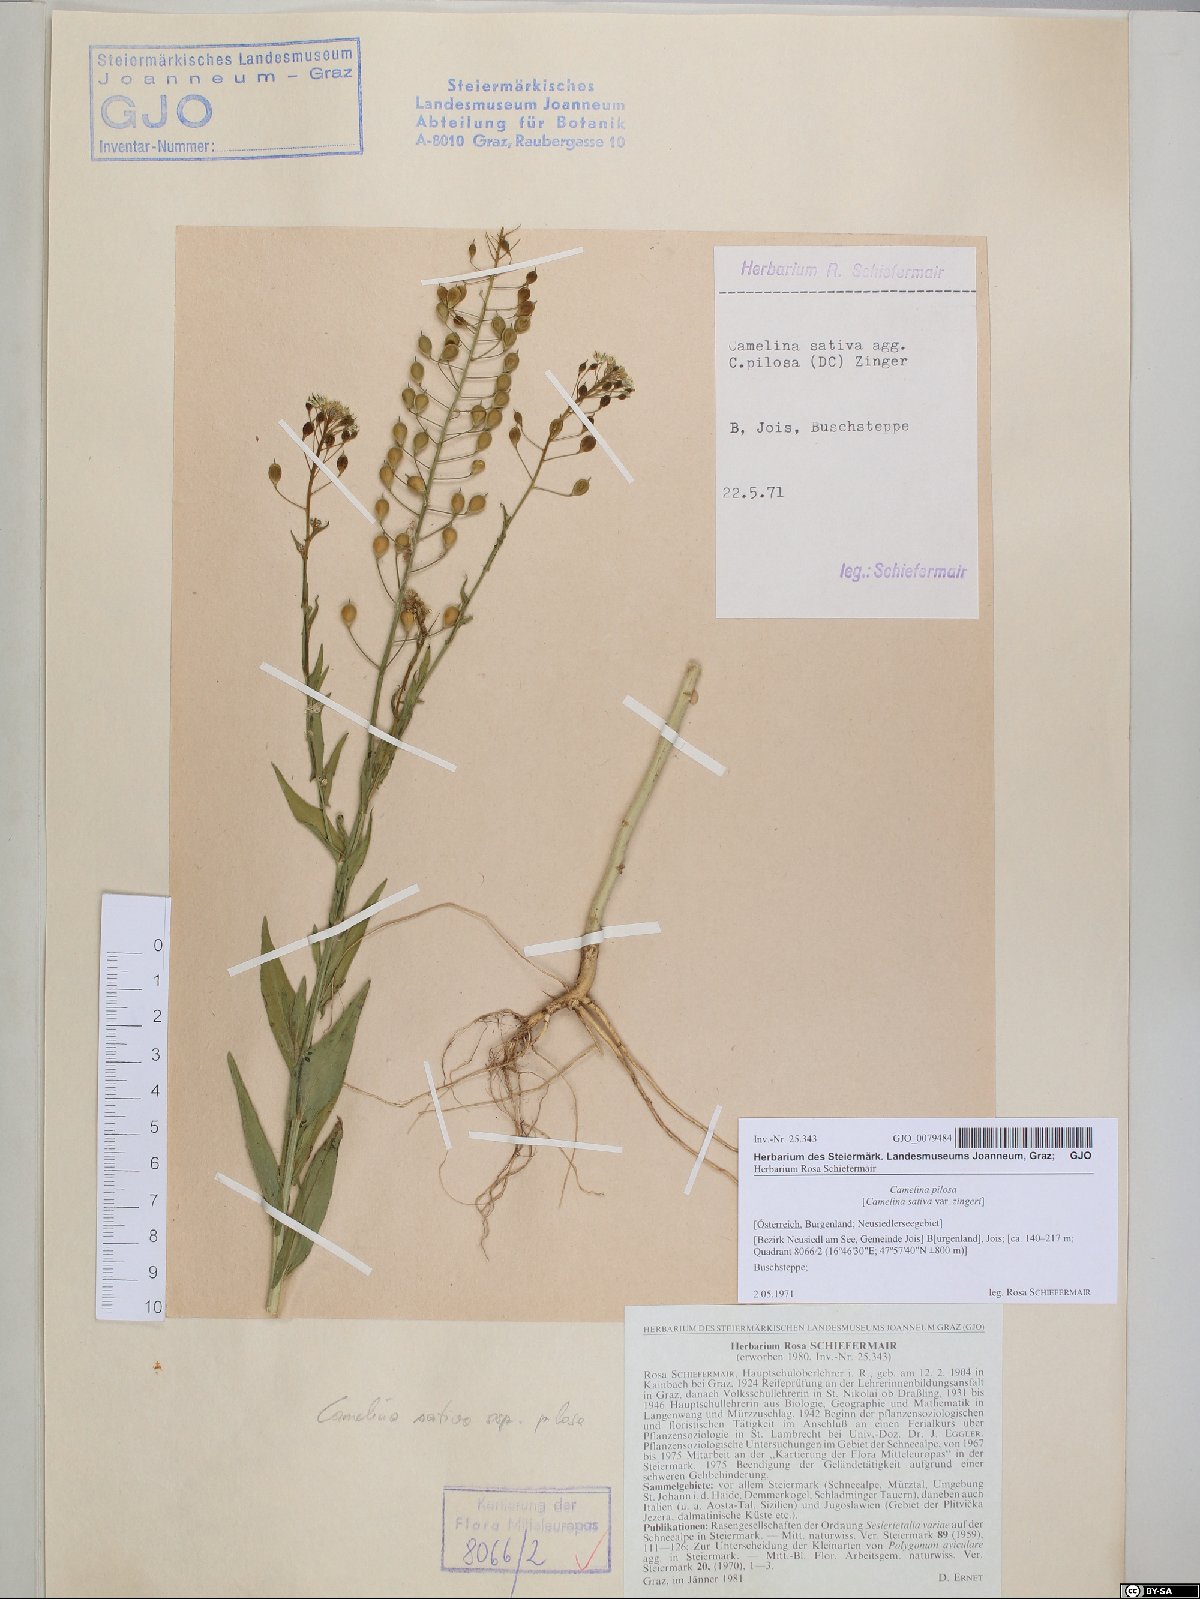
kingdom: Plantae
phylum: Tracheophyta
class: Magnoliopsida
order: Brassicales
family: Brassicaceae
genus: Camelina
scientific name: Camelina microcarpa
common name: Lesser gold-of-pleasure
